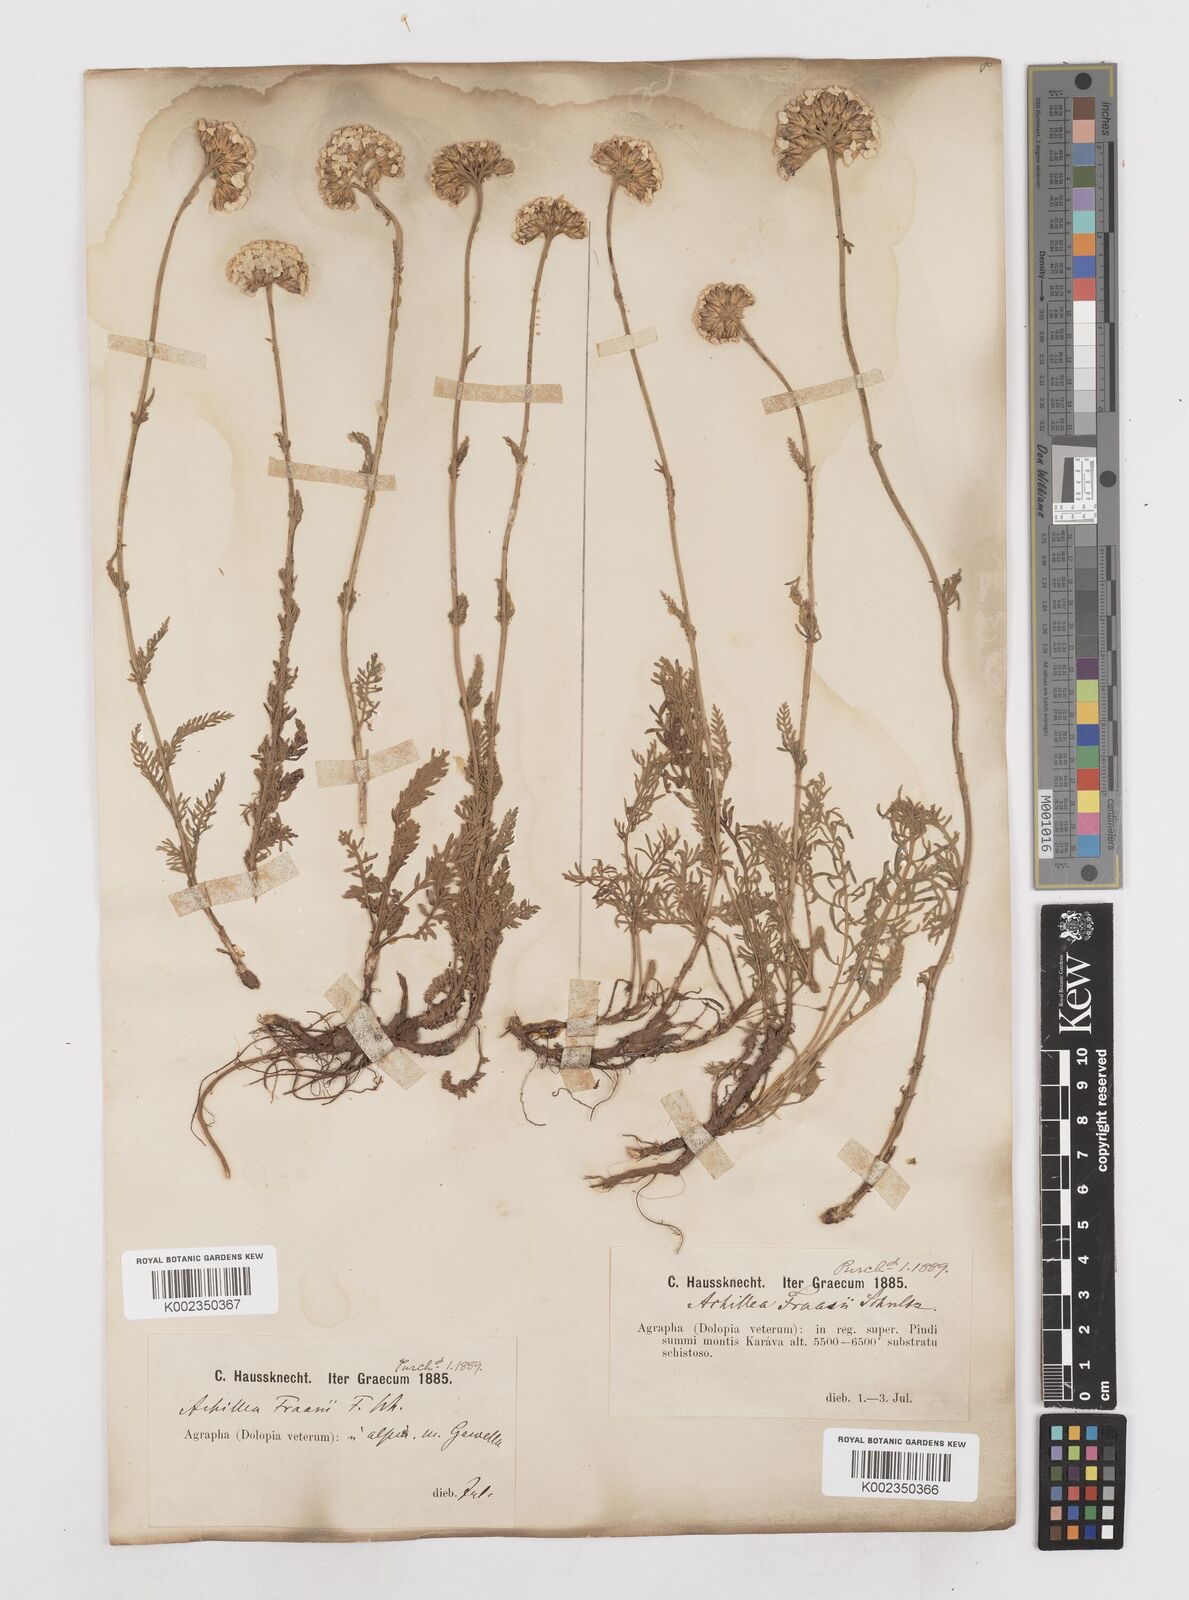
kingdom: Plantae
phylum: Tracheophyta
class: Magnoliopsida
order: Asterales
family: Asteraceae
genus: Achillea
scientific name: Achillea fraasii
